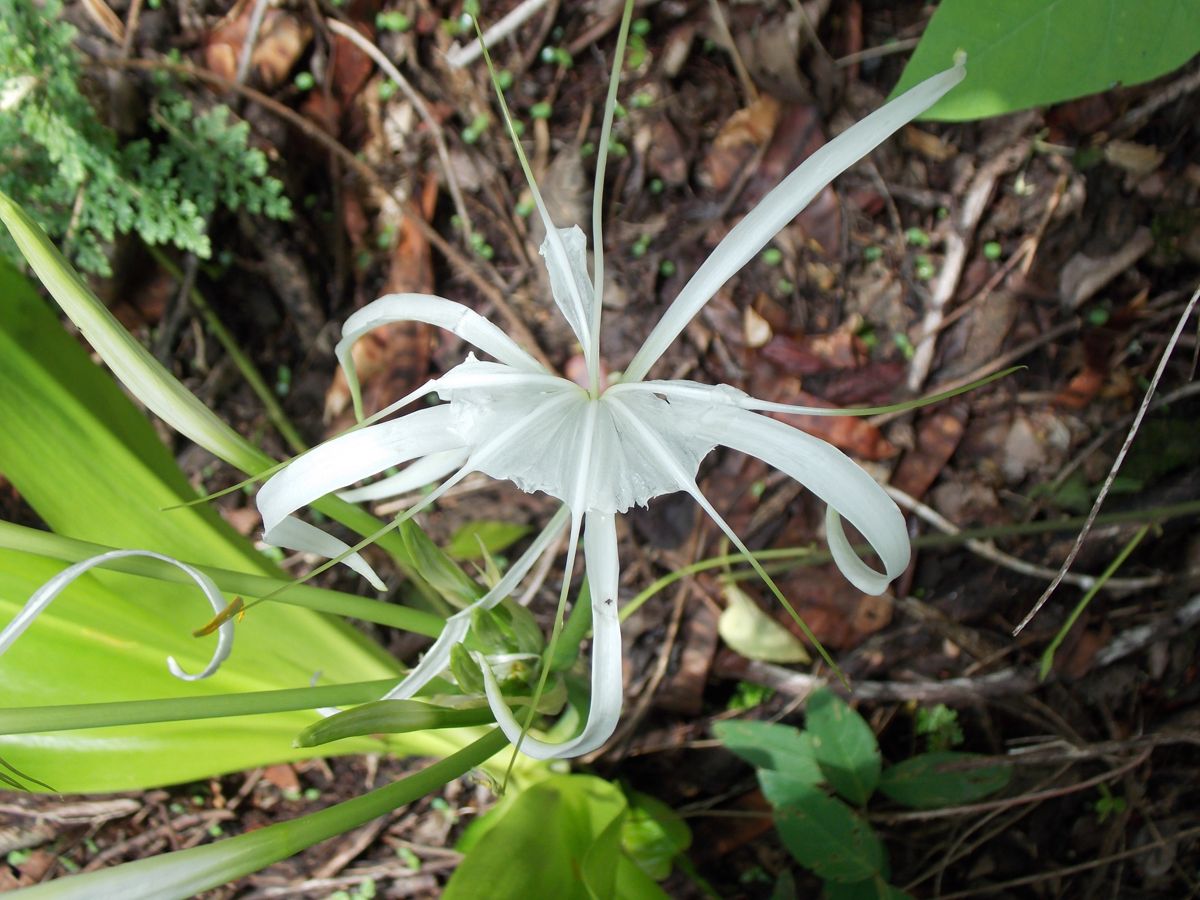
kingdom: Plantae
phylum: Tracheophyta
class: Liliopsida
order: Asparagales
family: Amaryllidaceae
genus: Hymenocallis
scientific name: Hymenocallis littoralis
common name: Beach spiderlily
